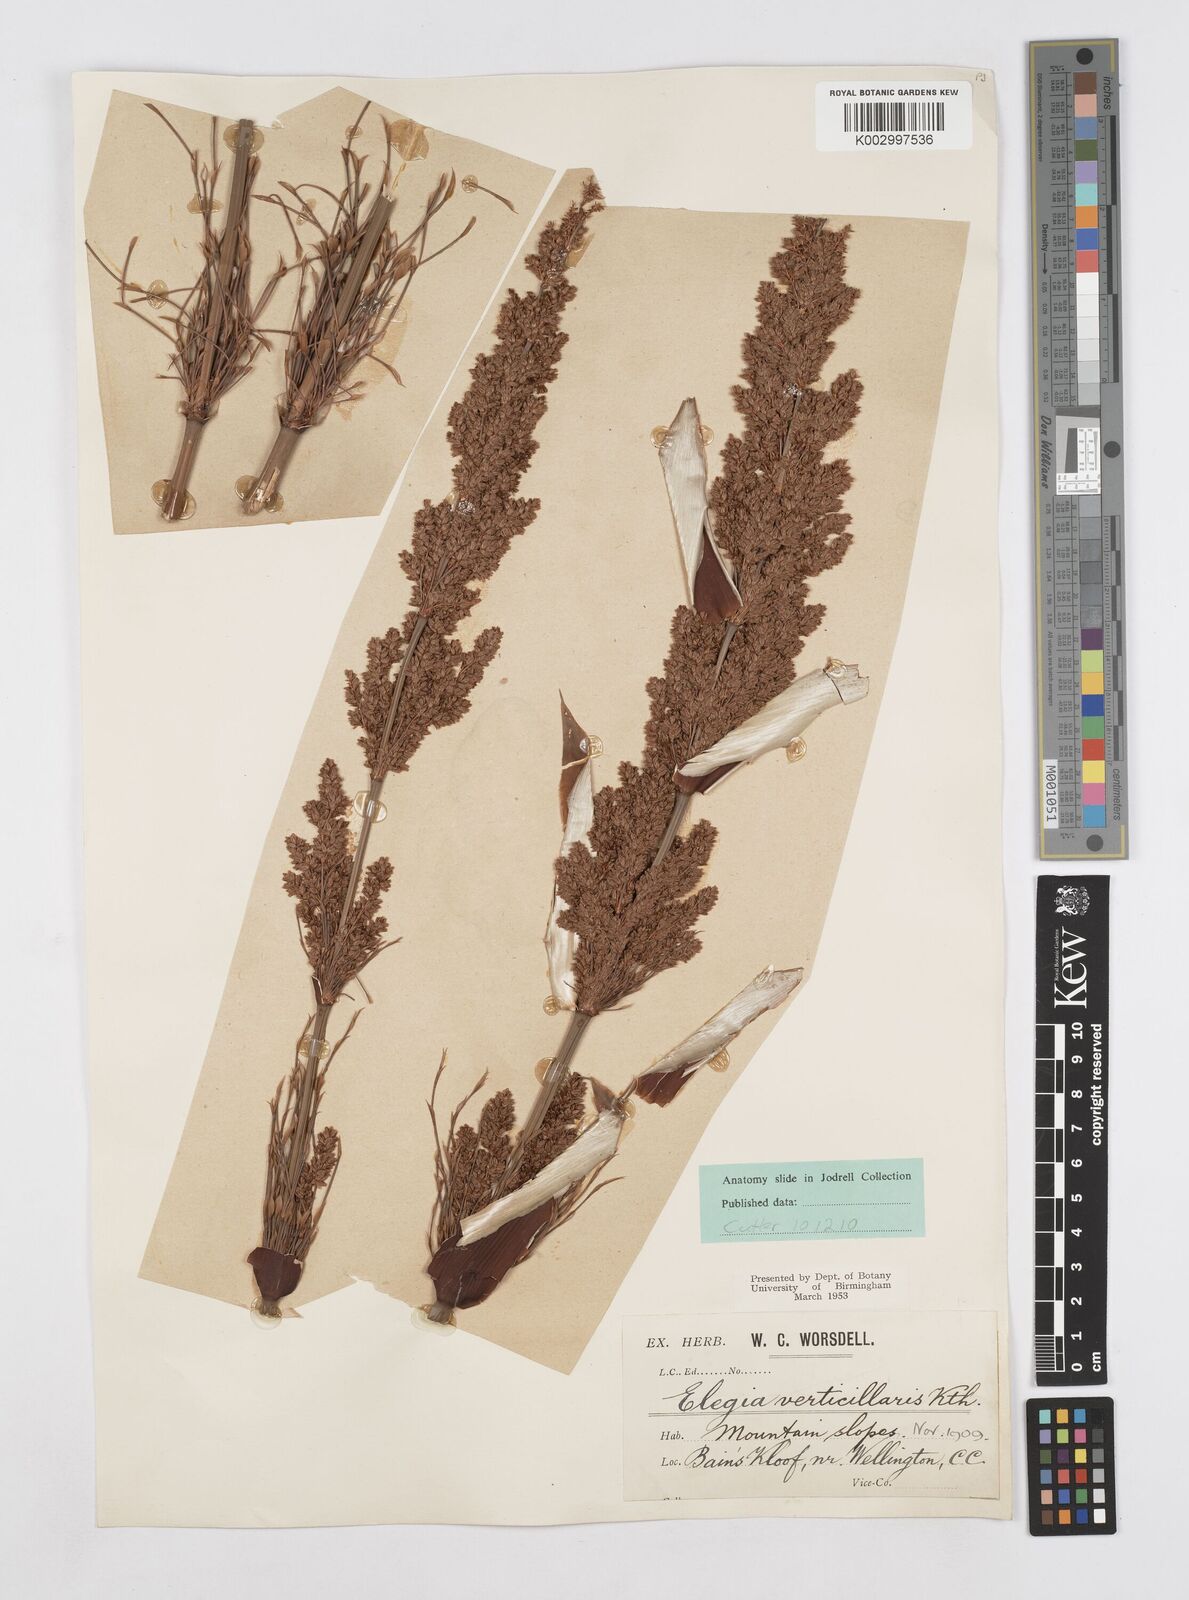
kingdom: Plantae
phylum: Tracheophyta
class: Liliopsida
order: Poales
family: Restionaceae
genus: Elegia
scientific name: Elegia capensis
